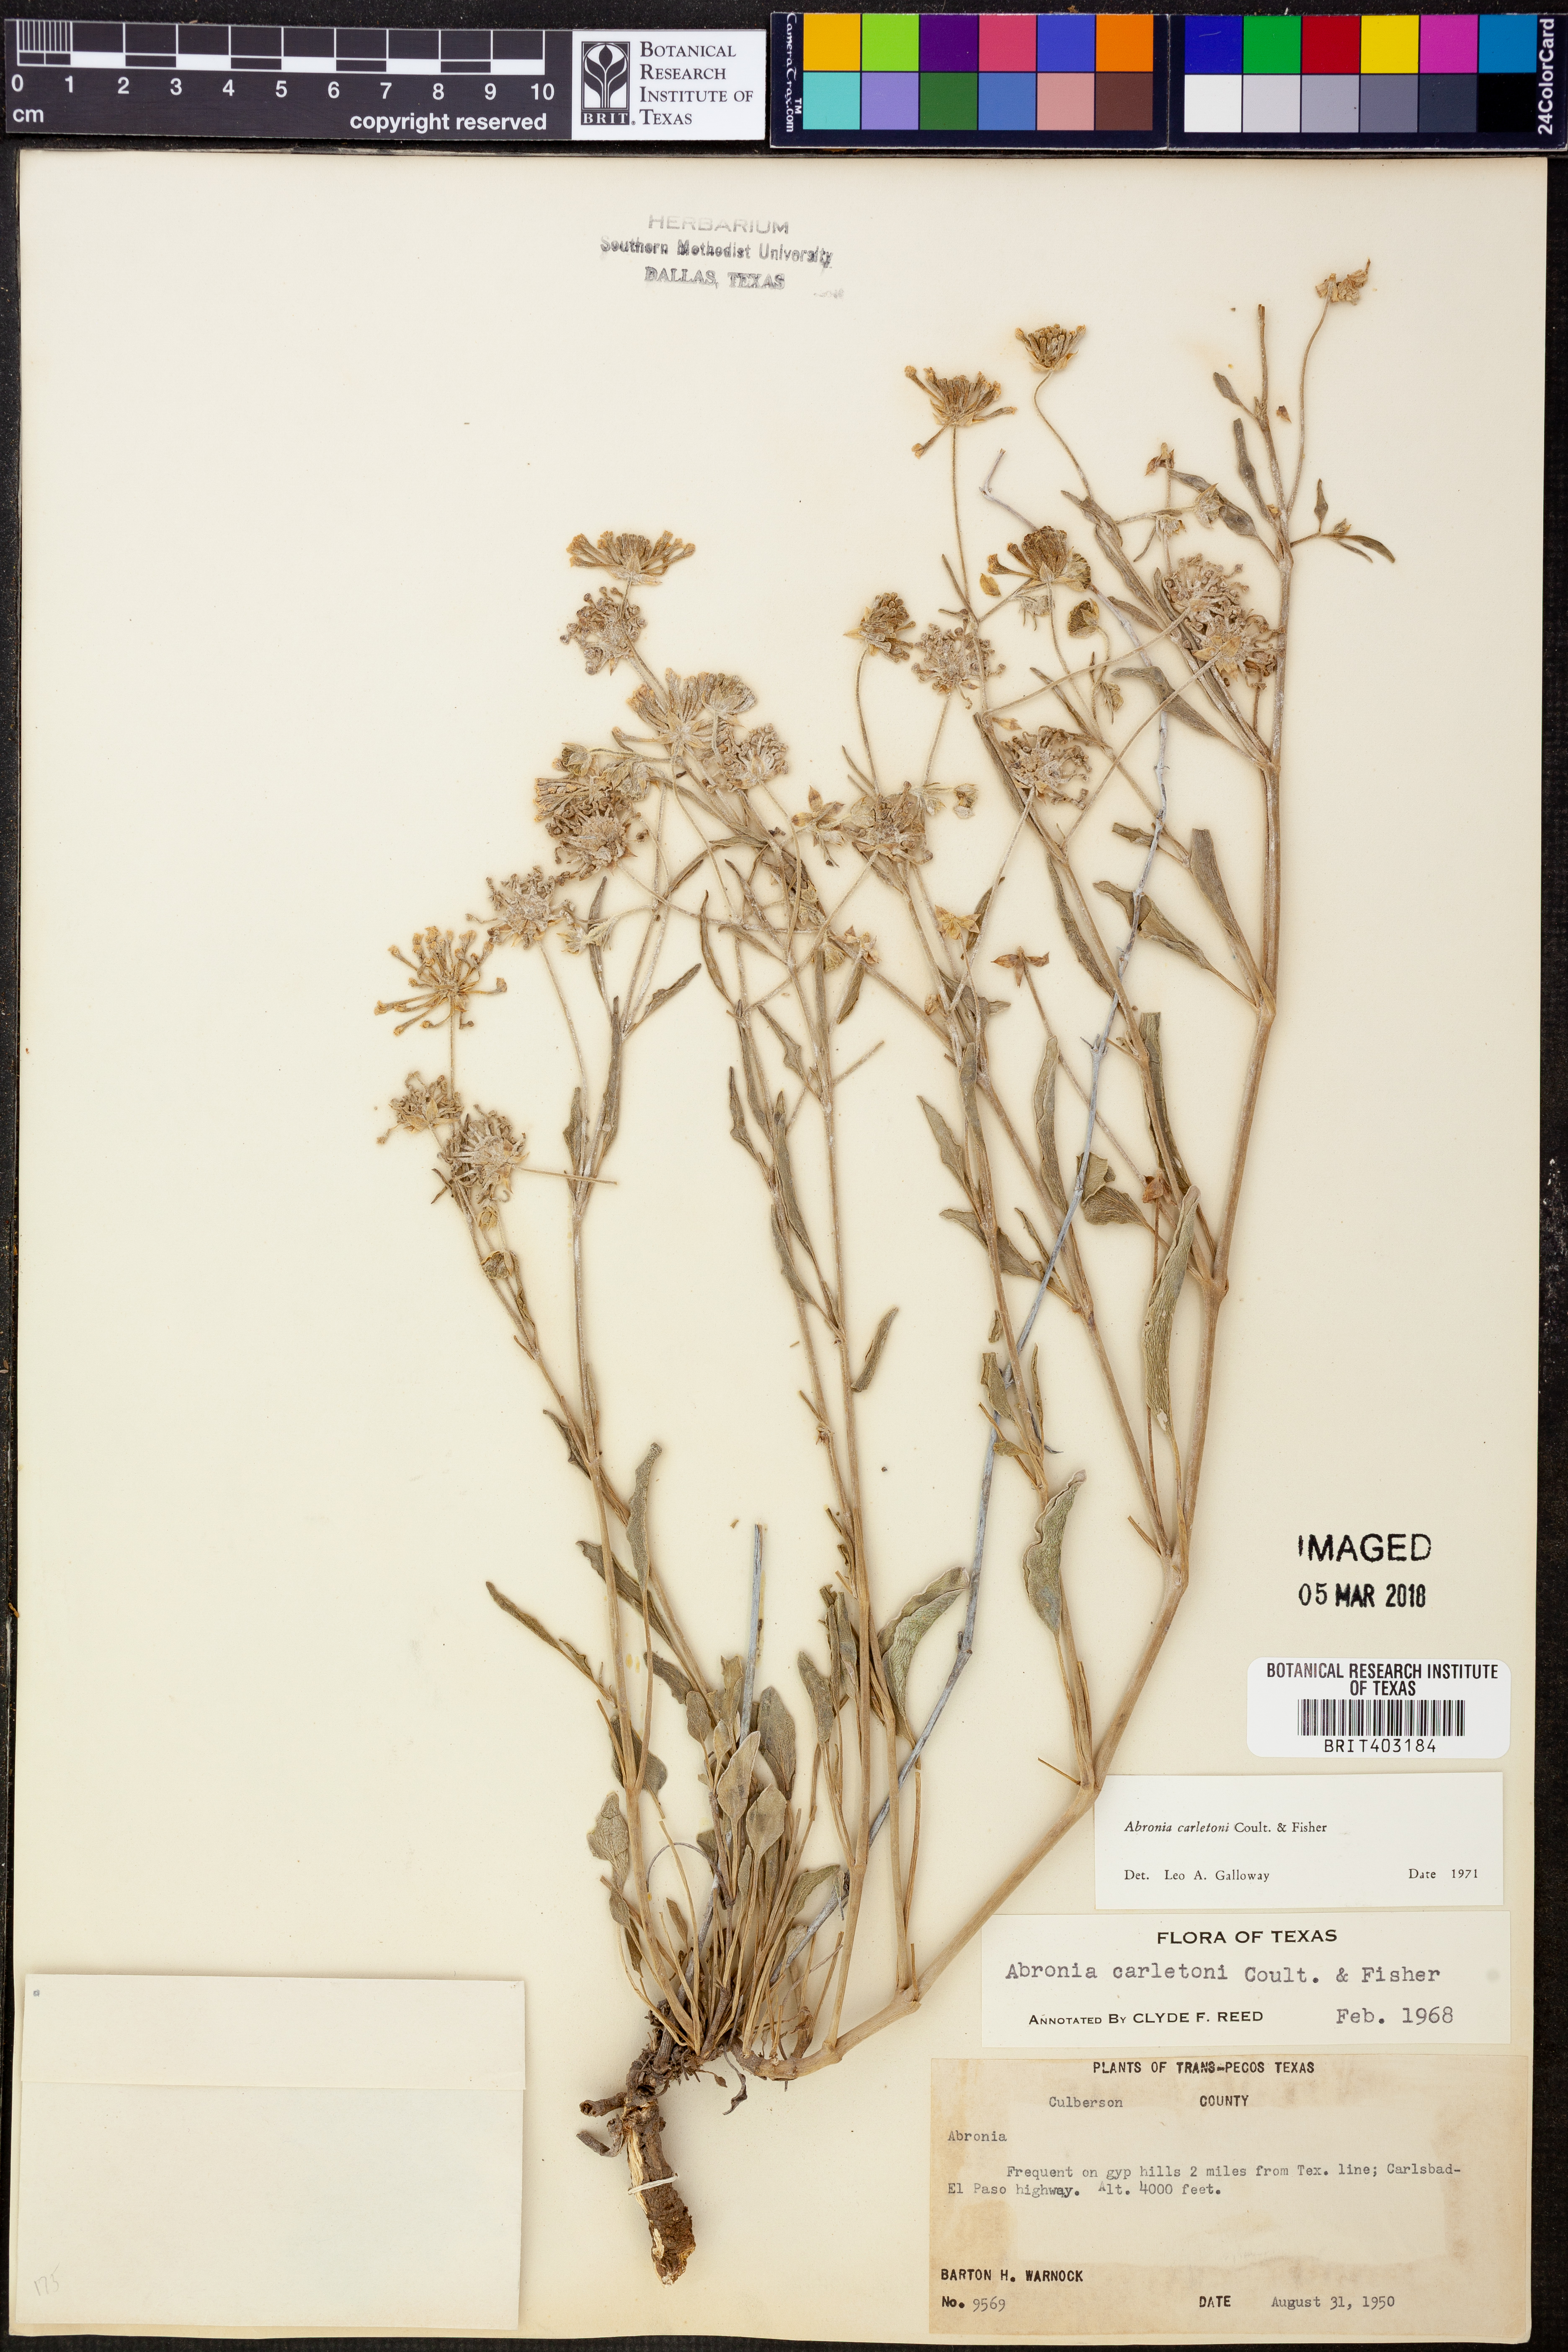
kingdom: Plantae
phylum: Tracheophyta
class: Magnoliopsida
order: Caryophyllales
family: Nyctaginaceae
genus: Abronia
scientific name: Abronia carletonii
